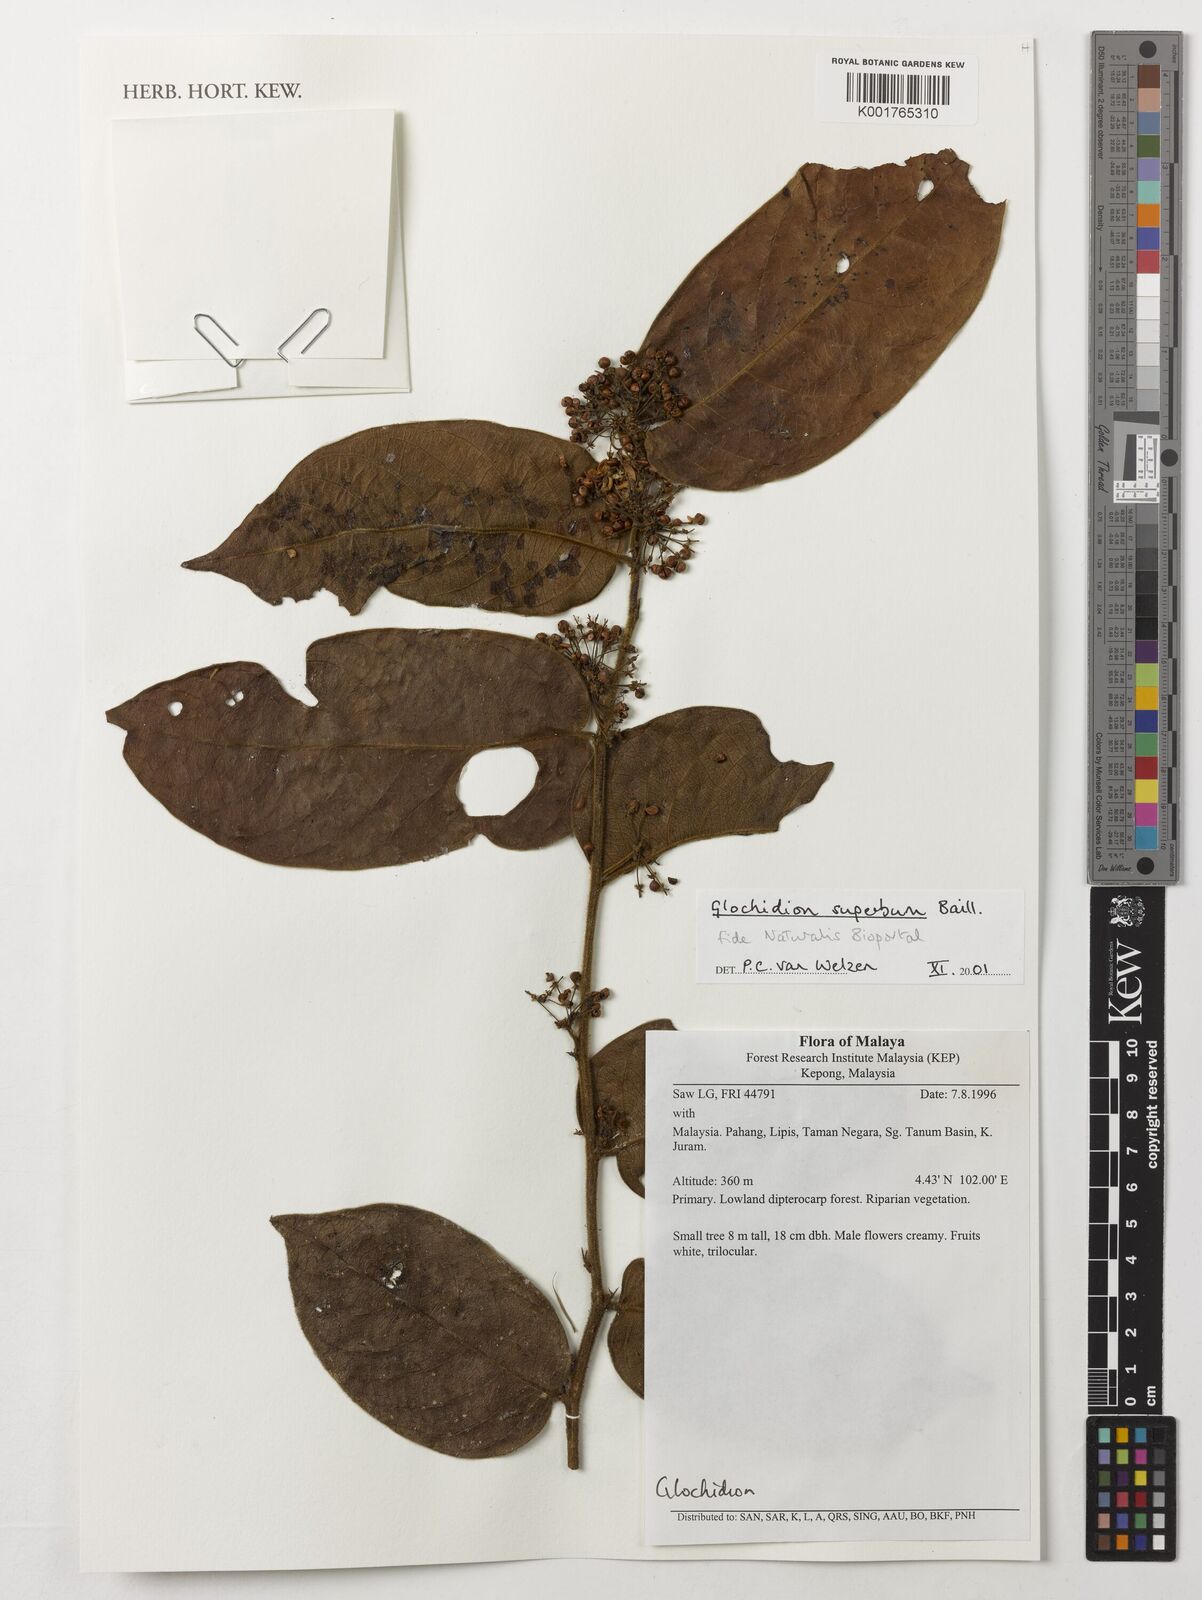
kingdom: Plantae
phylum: Tracheophyta
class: Magnoliopsida
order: Malpighiales
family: Phyllanthaceae
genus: Glochidion
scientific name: Glochidion
